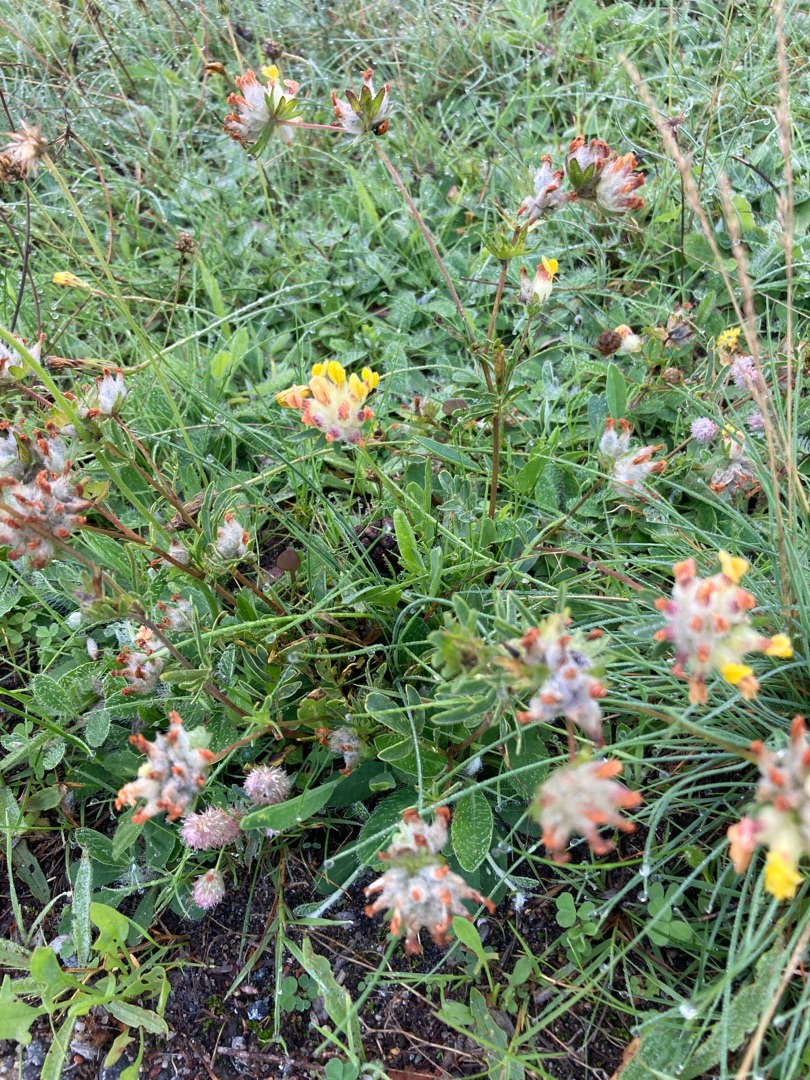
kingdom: Plantae
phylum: Tracheophyta
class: Magnoliopsida
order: Fabales
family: Fabaceae
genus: Anthyllis
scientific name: Anthyllis vulneraria
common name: Rundbælg
